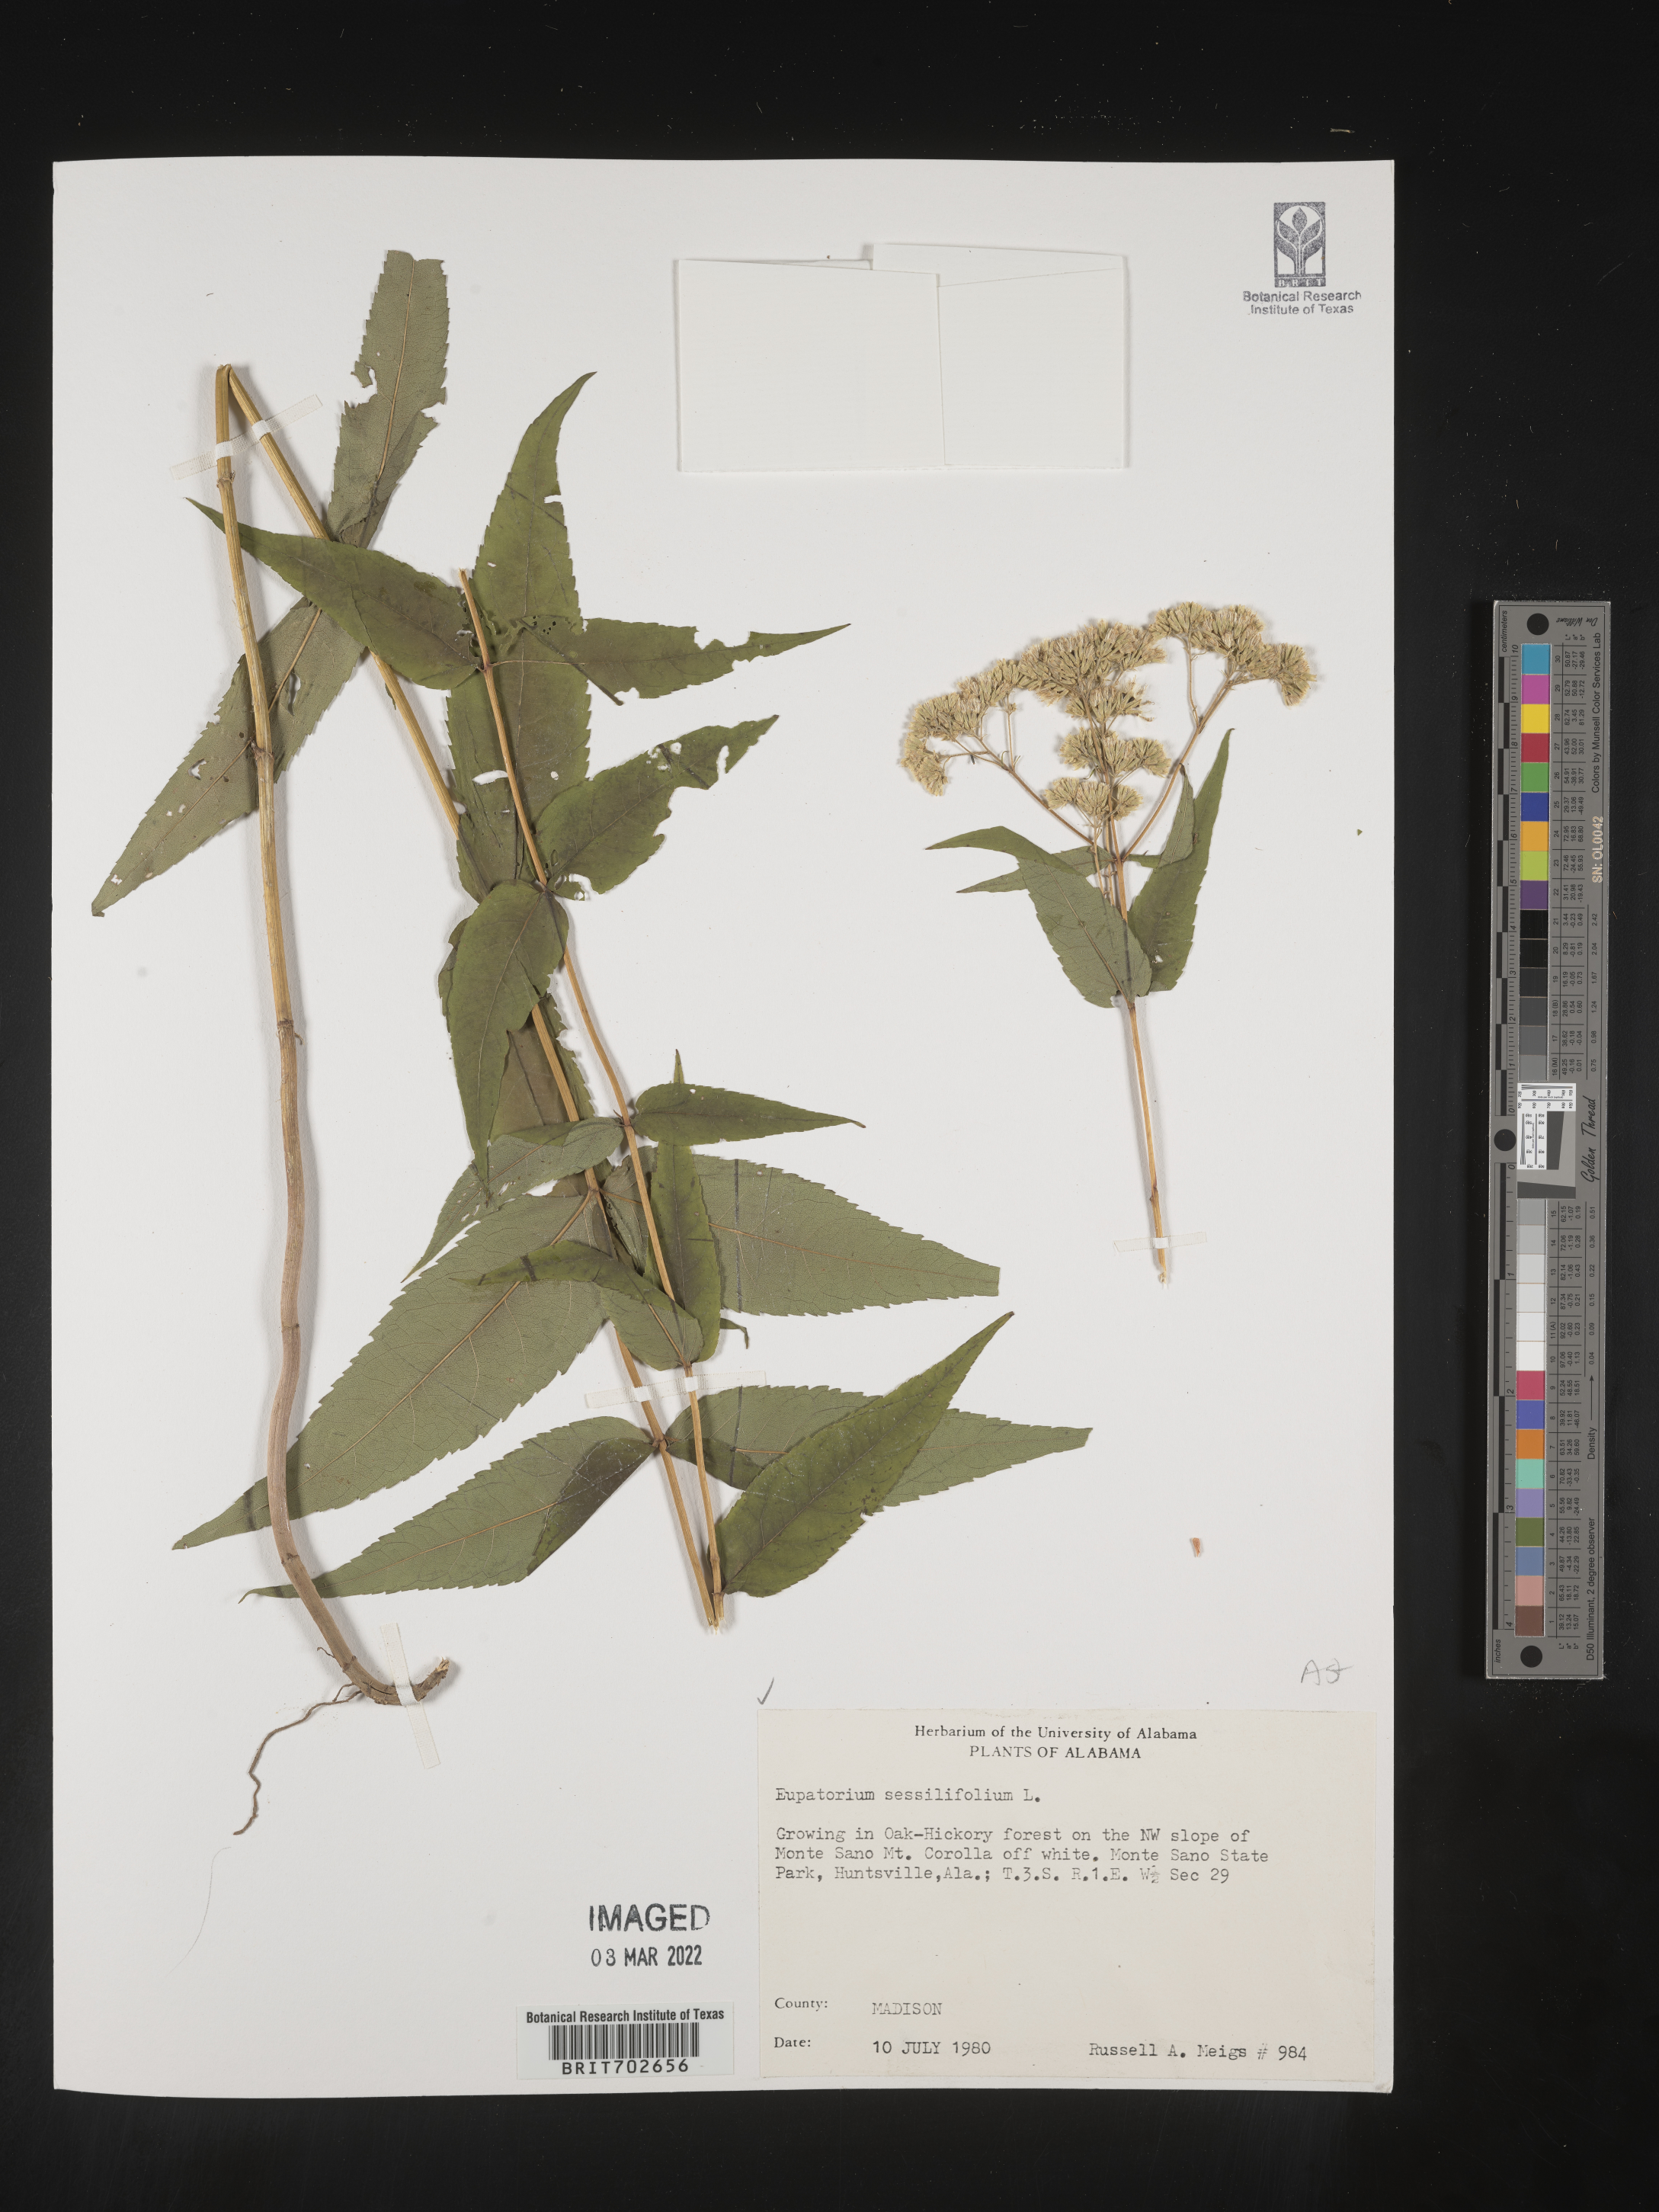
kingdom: Plantae
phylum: Tracheophyta
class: Magnoliopsida
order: Asterales
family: Asteraceae
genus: Eupatorium
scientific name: Eupatorium sessilifolium
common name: Upland boneset
